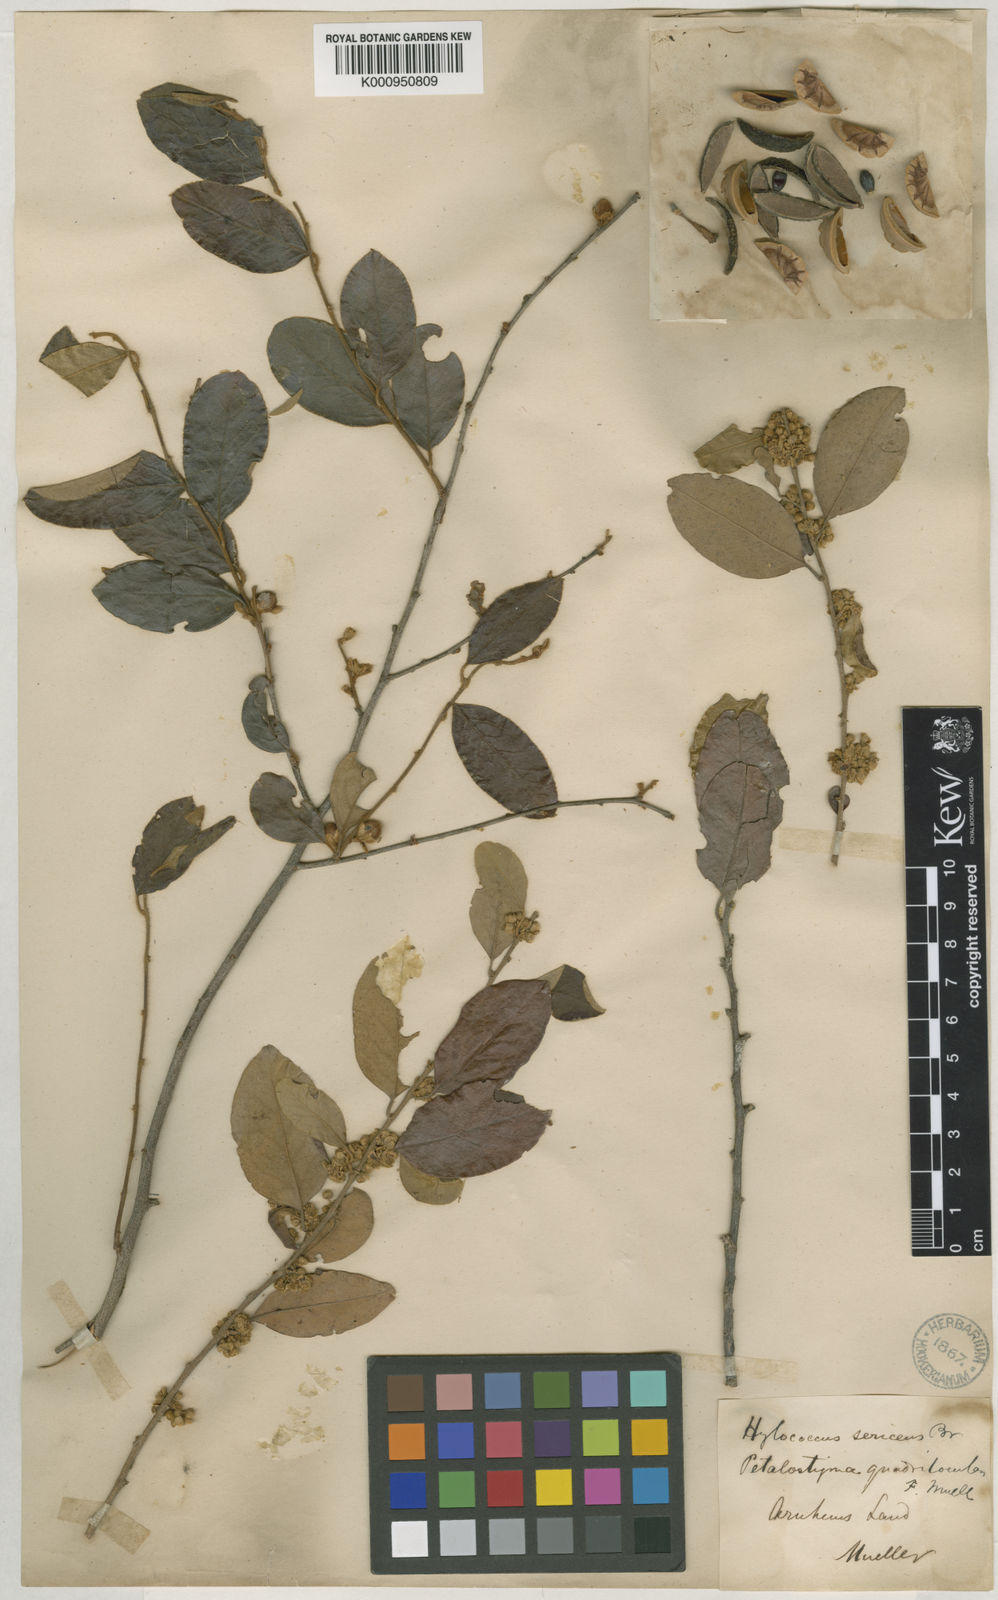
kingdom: Plantae
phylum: Tracheophyta
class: Magnoliopsida
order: Malpighiales
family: Picrodendraceae
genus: Petalostigma
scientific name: Petalostigma pubescens
